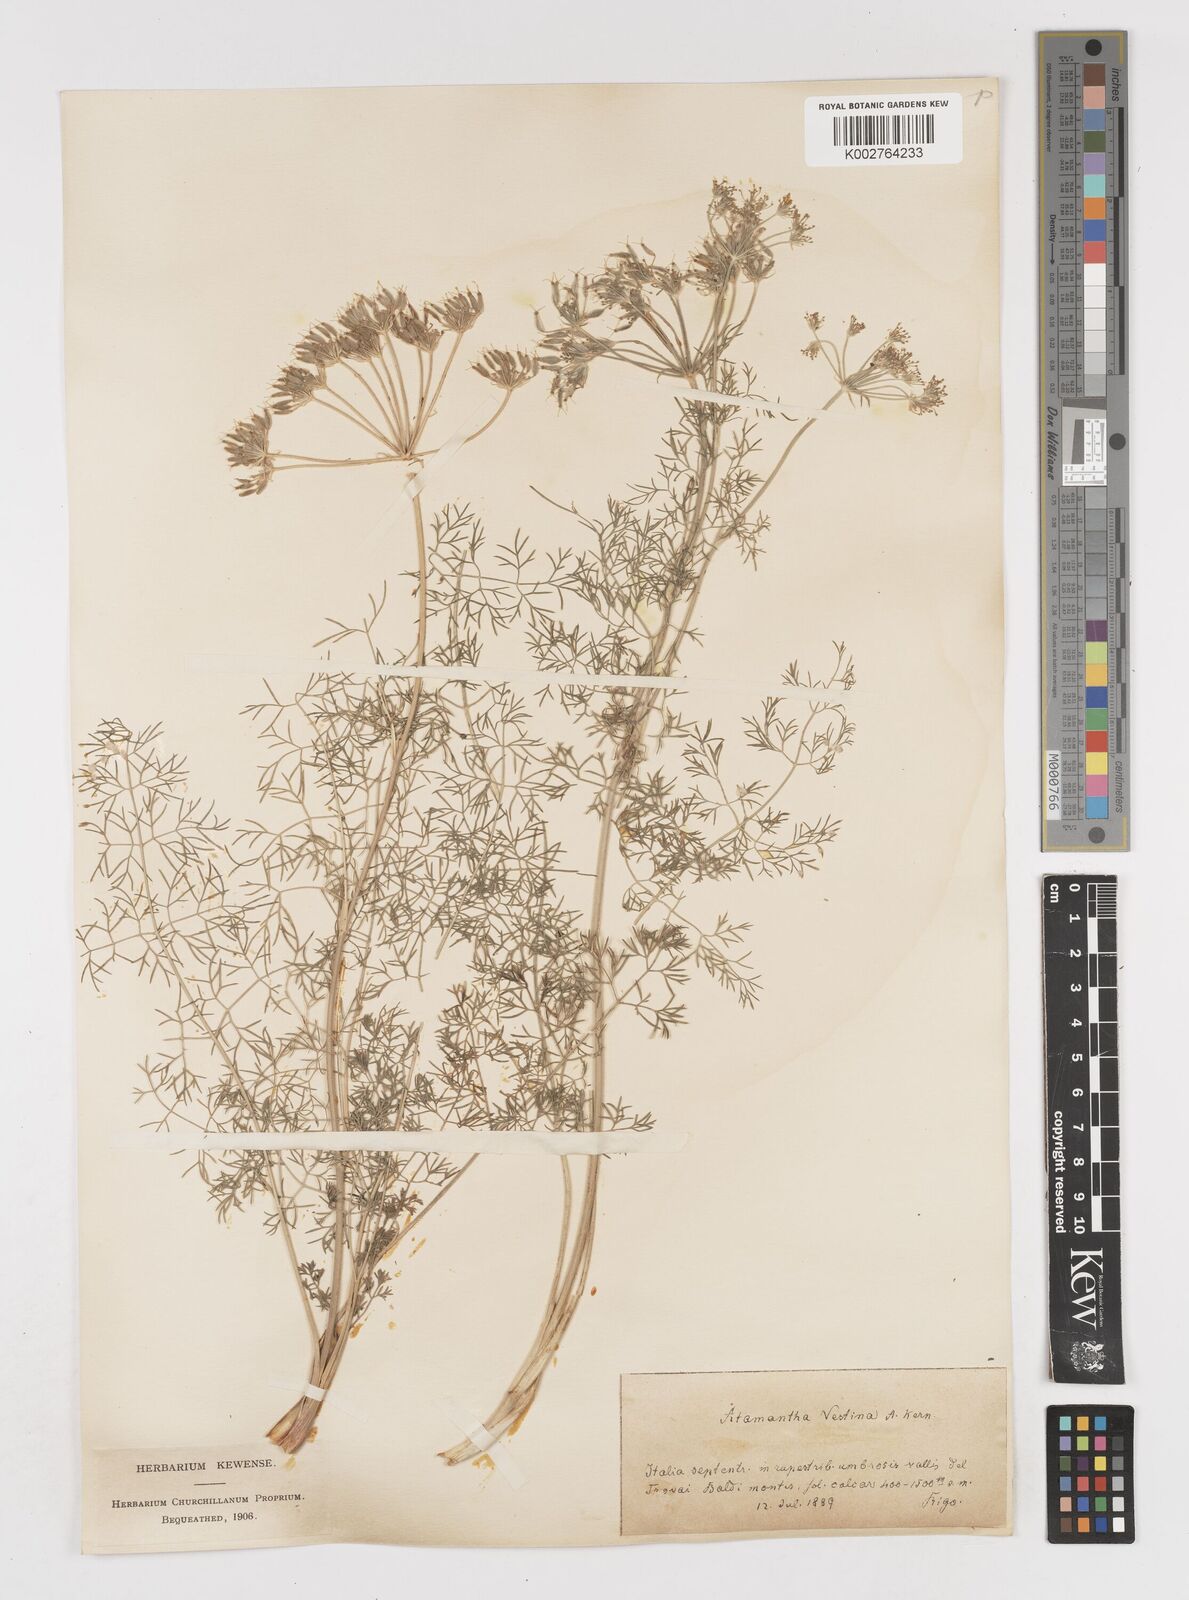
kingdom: Plantae
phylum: Tracheophyta
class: Magnoliopsida
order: Apiales
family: Apiaceae
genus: Athamanta
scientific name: Athamanta cretensis
